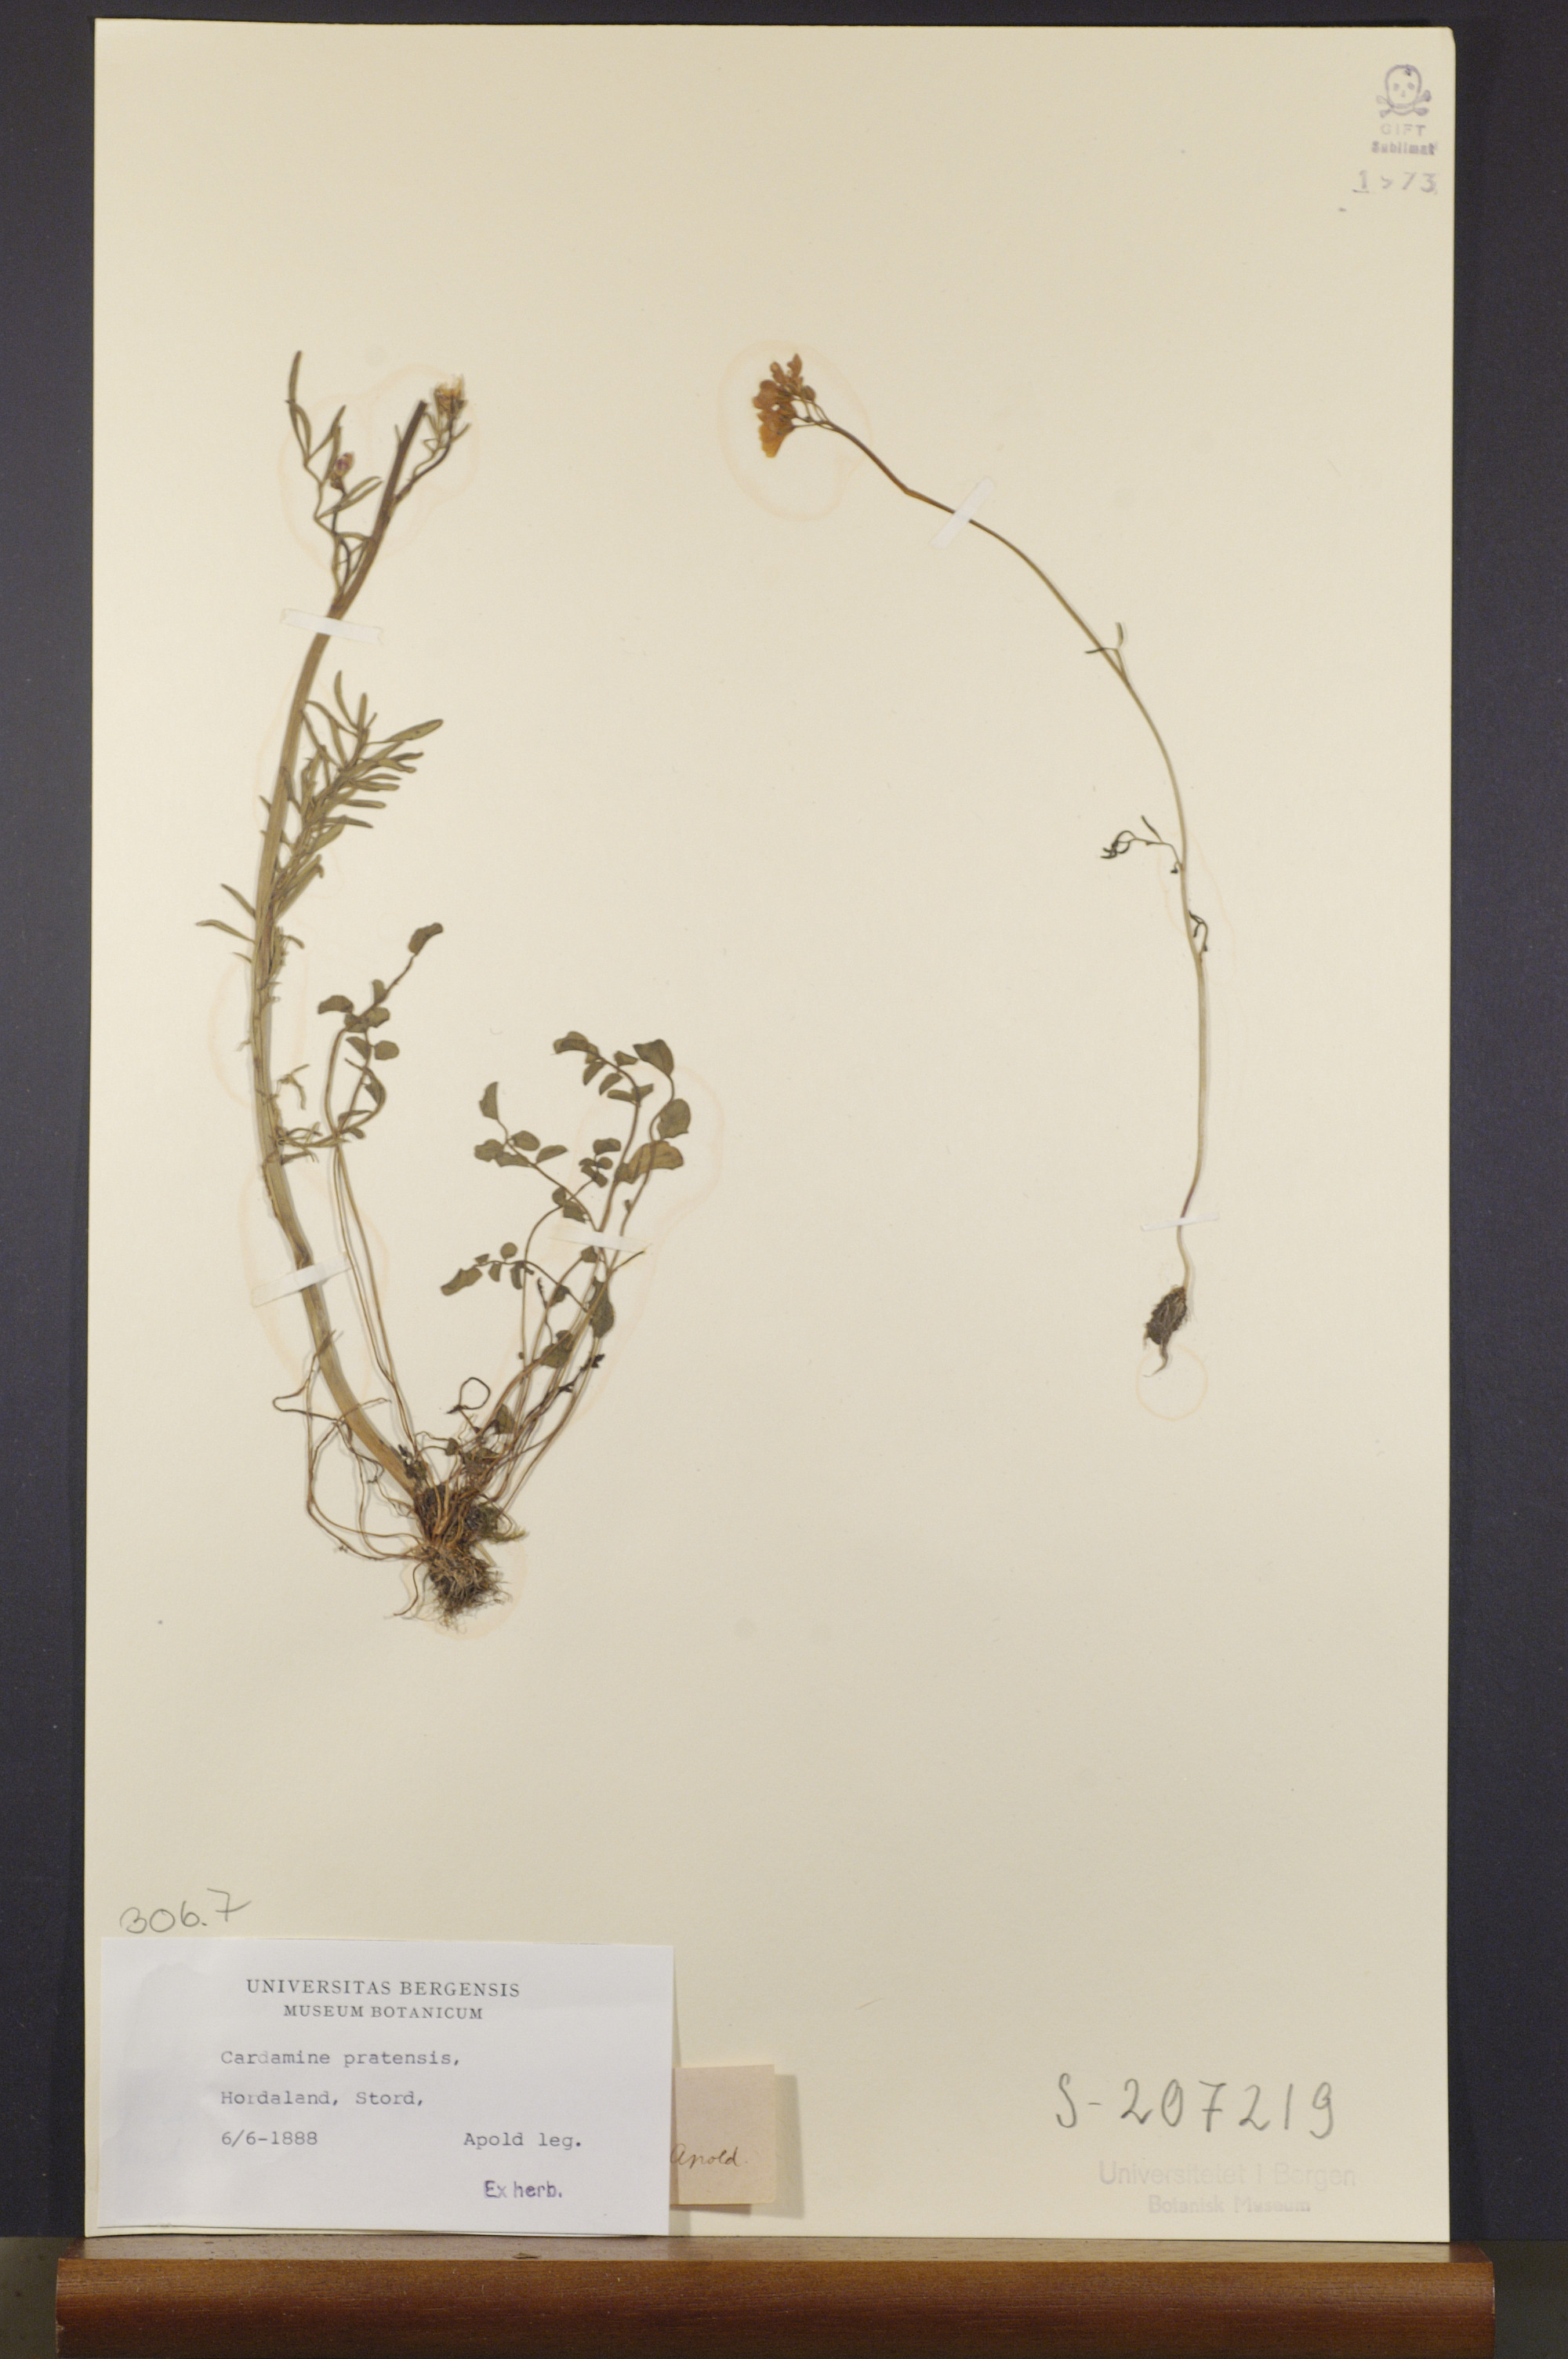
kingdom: Plantae
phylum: Tracheophyta
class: Magnoliopsida
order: Brassicales
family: Brassicaceae
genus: Cardamine
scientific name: Cardamine pratensis
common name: Cuckoo flower
